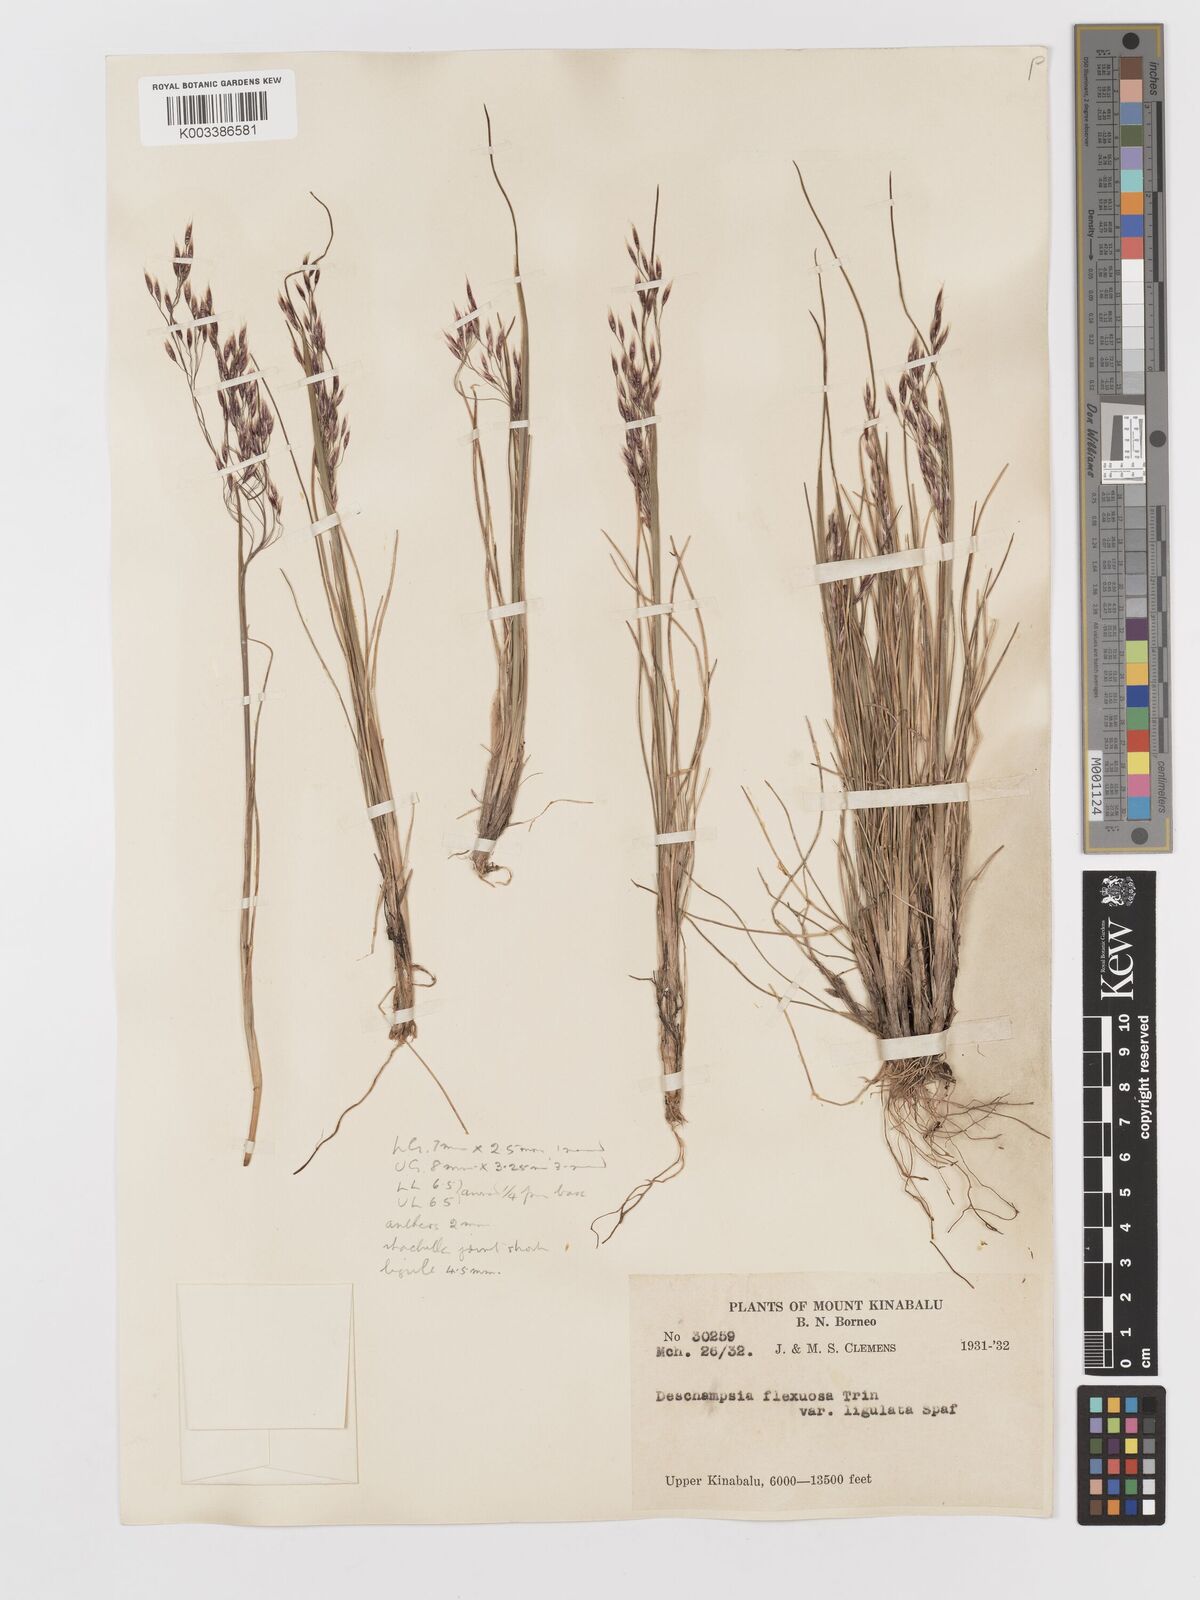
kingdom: Plantae
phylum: Tracheophyta
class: Liliopsida
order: Poales
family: Poaceae
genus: Avenella
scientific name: Avenella flexuosa
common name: Wavy hairgrass
